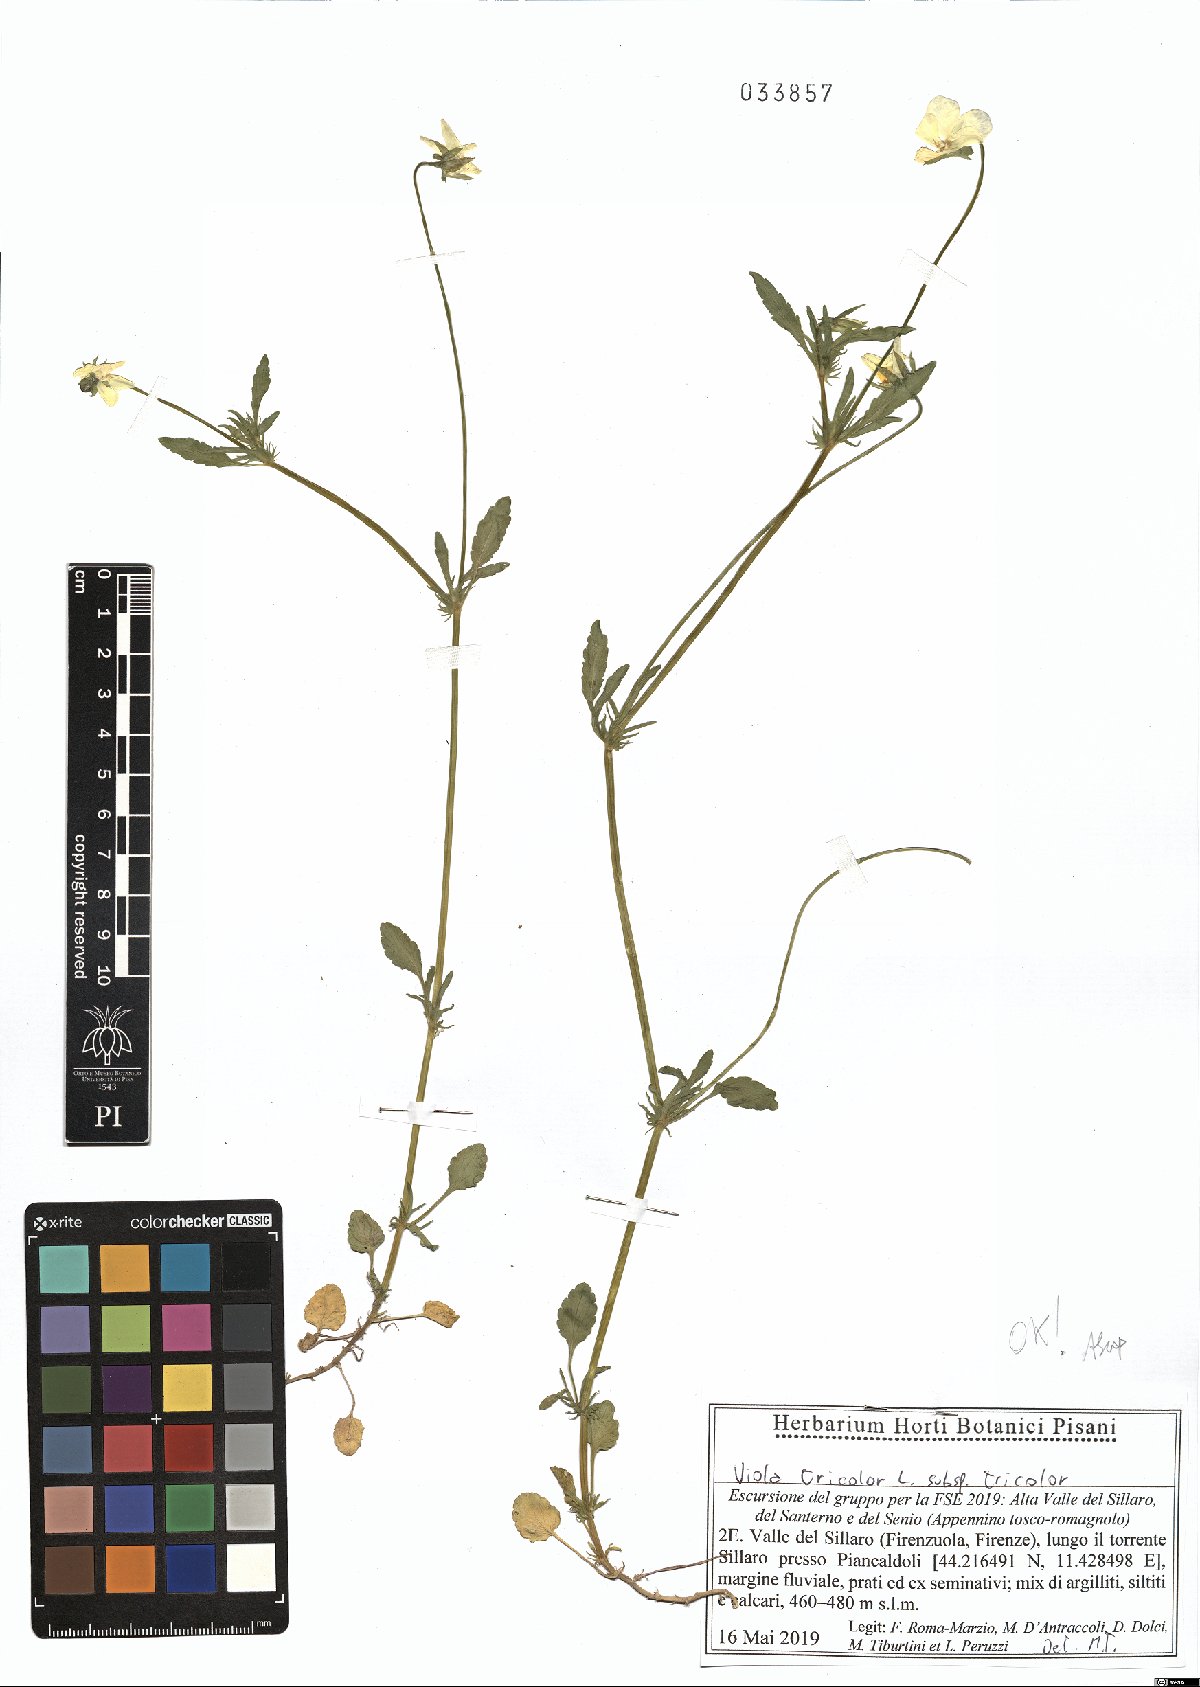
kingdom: Plantae
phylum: Tracheophyta
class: Magnoliopsida
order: Malpighiales
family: Violaceae
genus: Viola
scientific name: Viola tricolor
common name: Pansy
